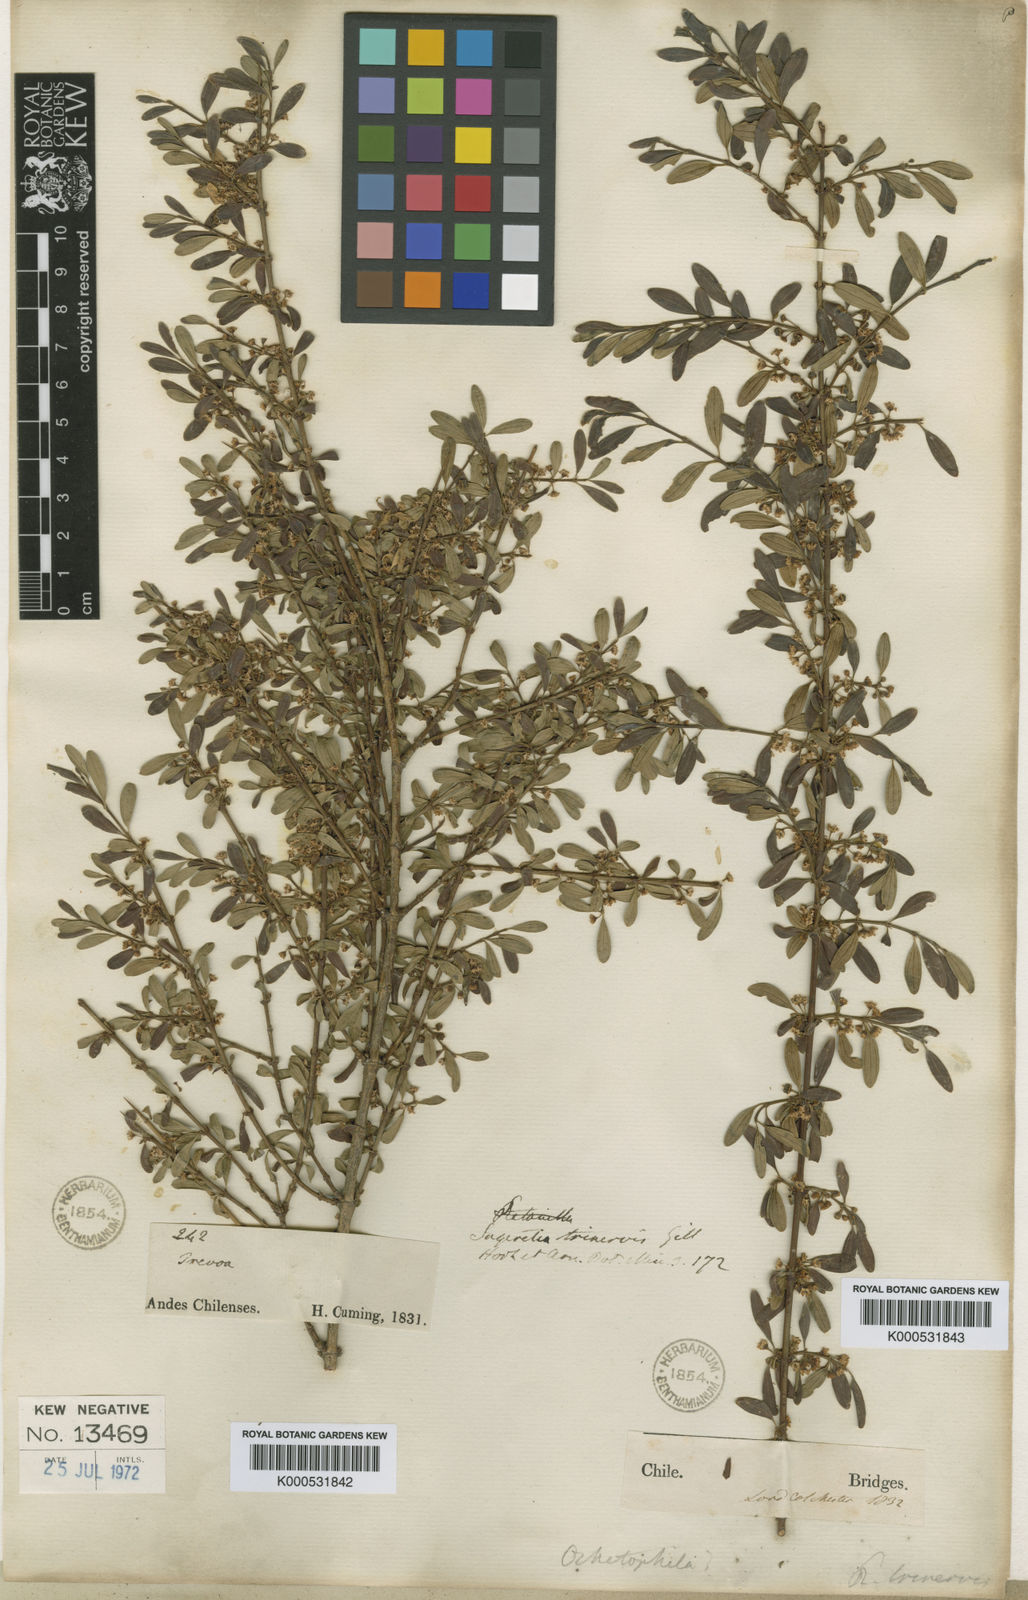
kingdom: Plantae
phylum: Tracheophyta
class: Magnoliopsida
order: Rosales
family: Rhamnaceae
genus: Ochetophila
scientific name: Ochetophila trinervis
